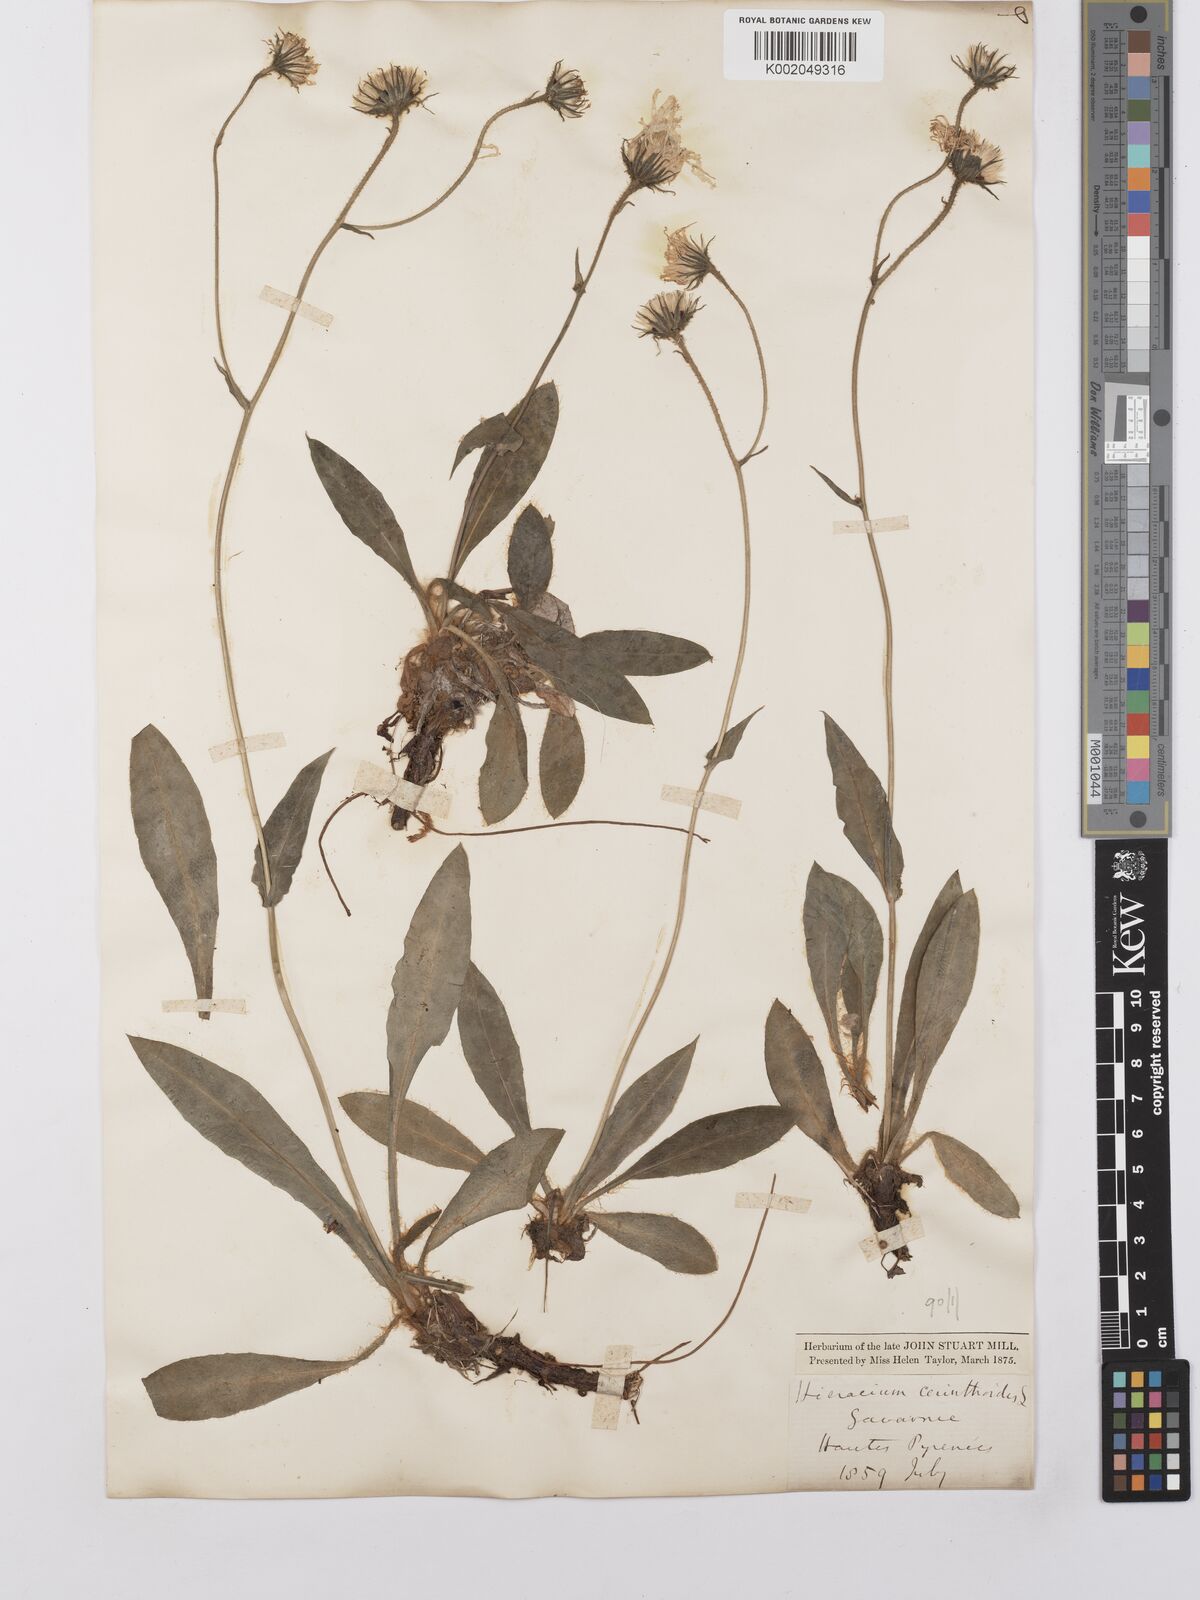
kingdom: Plantae
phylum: Tracheophyta
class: Magnoliopsida
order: Asterales
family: Asteraceae
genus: Hieracium
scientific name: Hieracium cerinthoides
